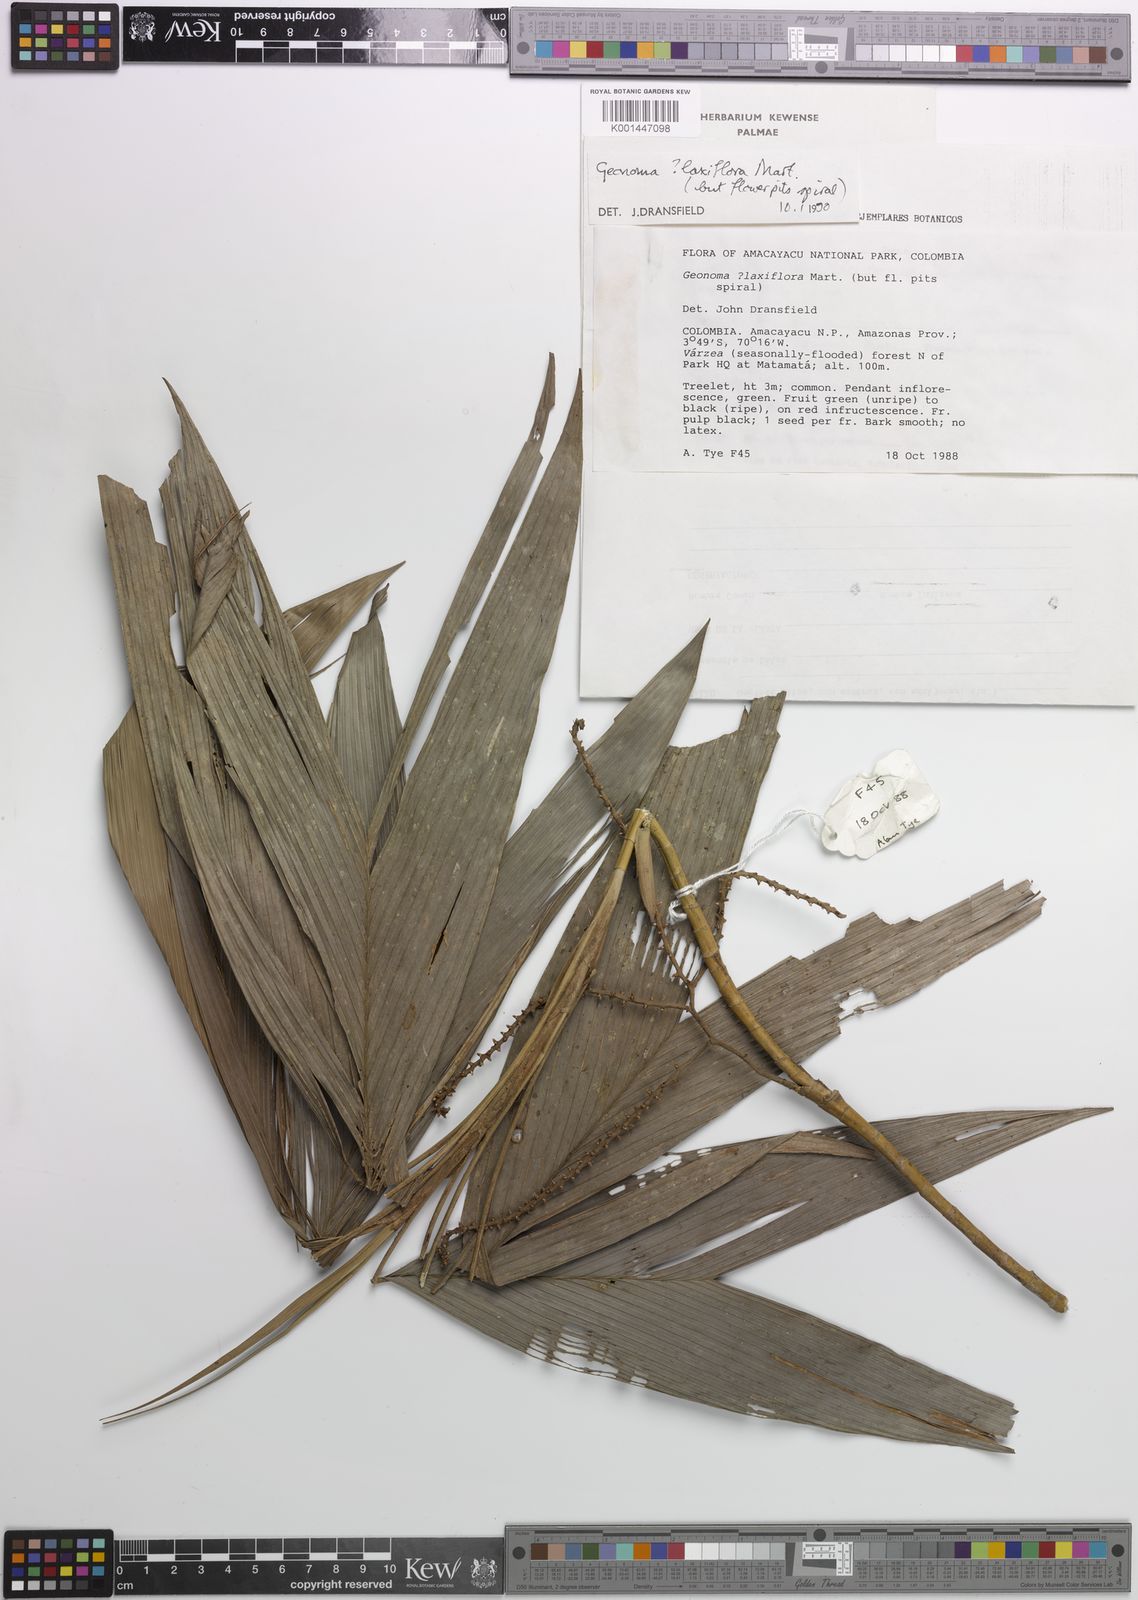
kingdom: Plantae
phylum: Tracheophyta
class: Liliopsida
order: Arecales
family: Arecaceae
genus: Geonoma
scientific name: Geonoma laxiflora
